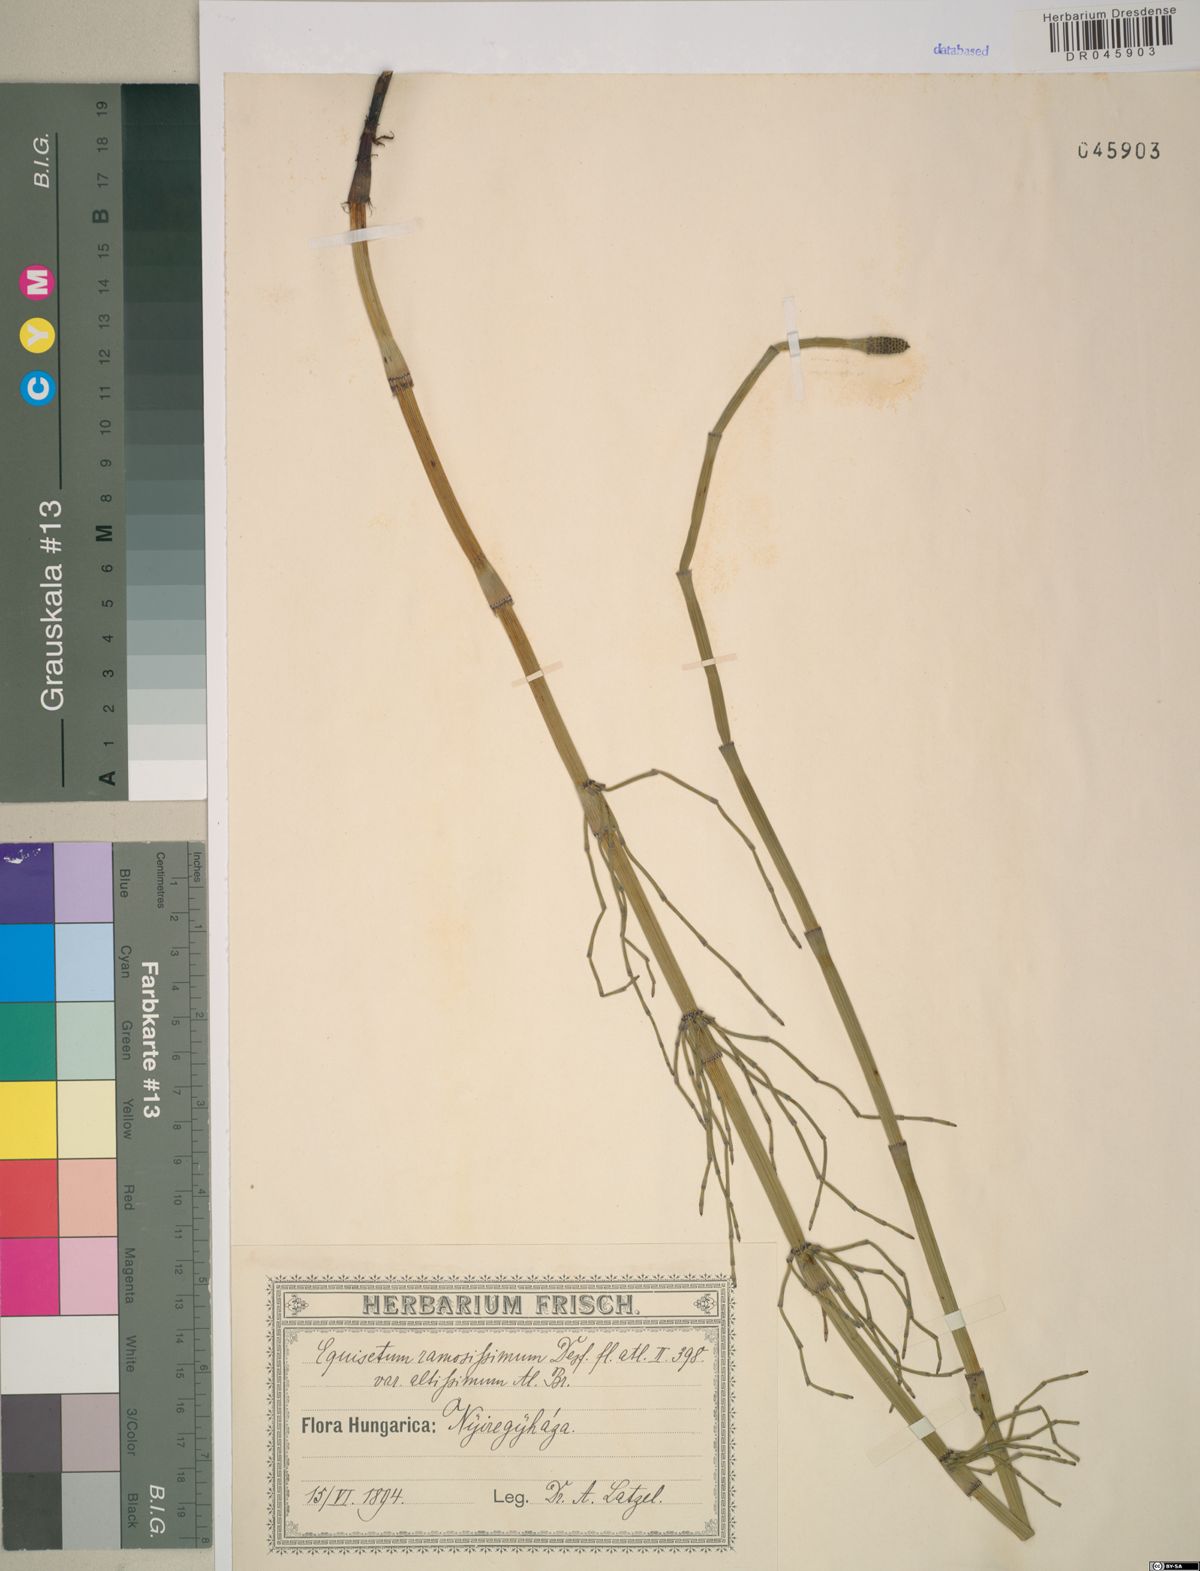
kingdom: Plantae
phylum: Tracheophyta
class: Polypodiopsida
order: Equisetales
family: Equisetaceae
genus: Equisetum
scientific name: Equisetum ramosissimum
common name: Branched horsetail
